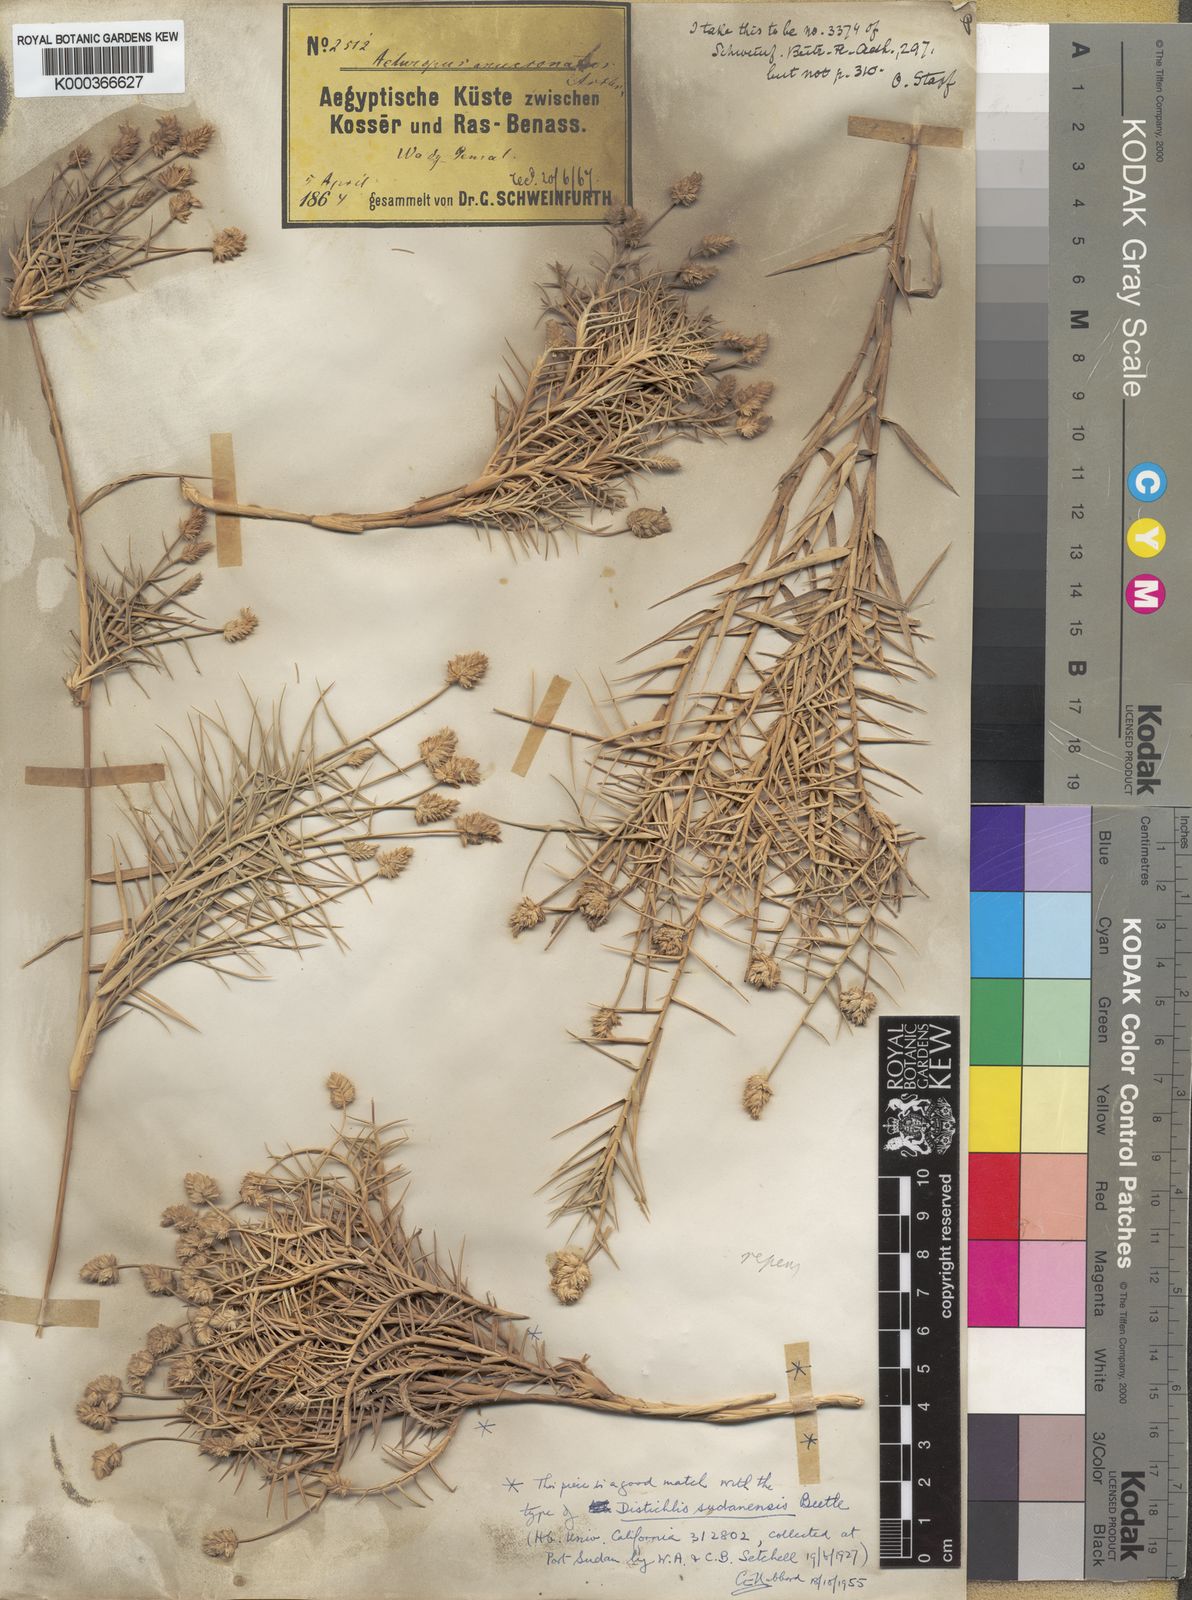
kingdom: Plantae
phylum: Tracheophyta
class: Liliopsida
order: Poales
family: Poaceae
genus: Aeluropus
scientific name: Aeluropus
